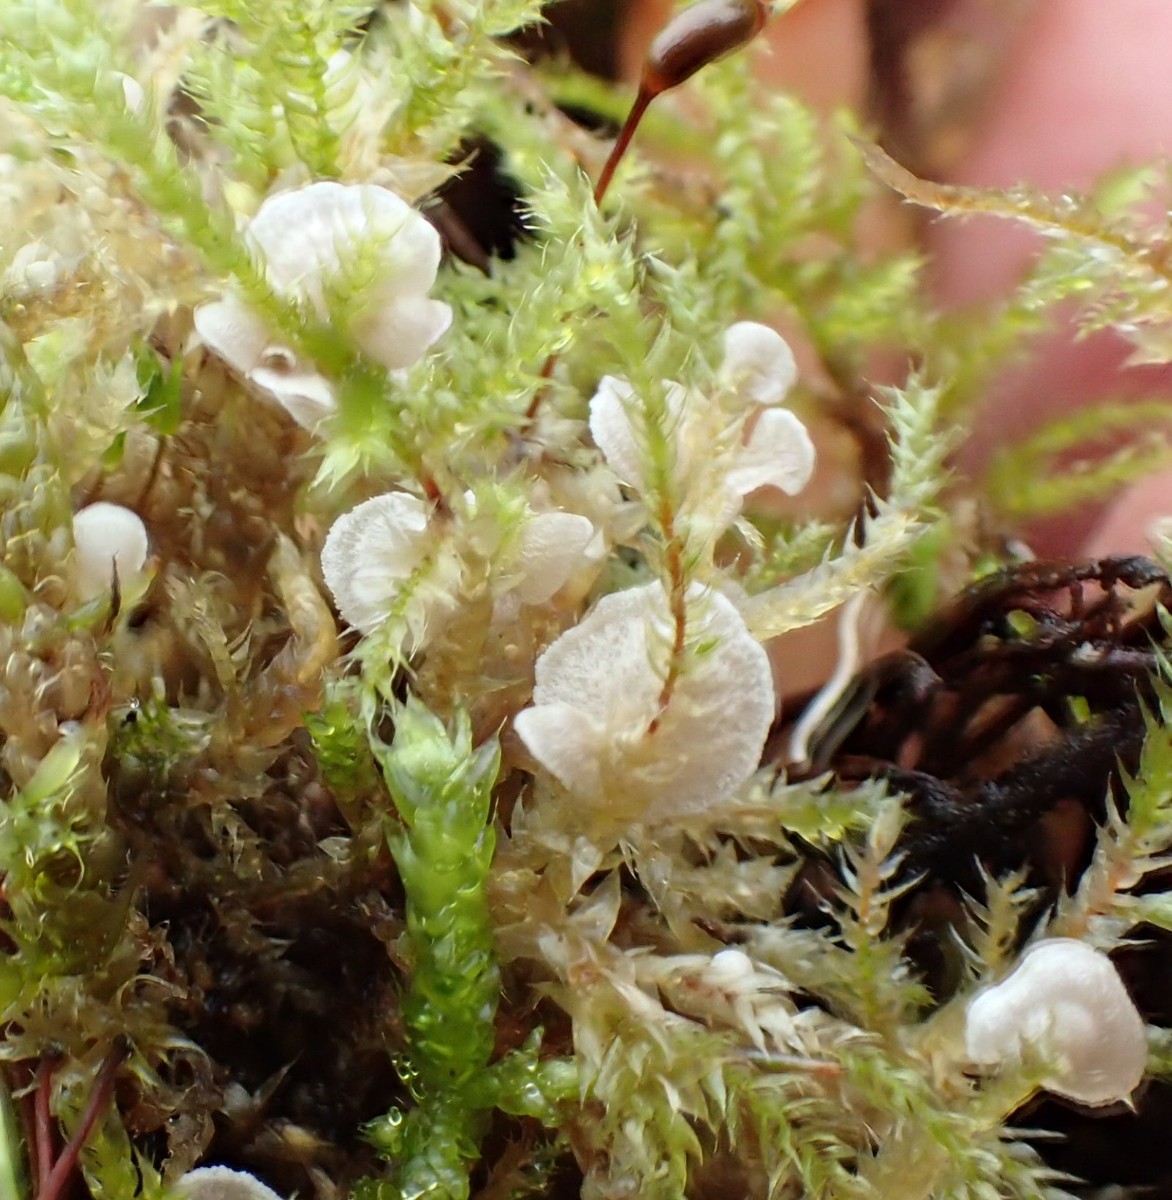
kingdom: Fungi
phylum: Basidiomycota
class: Agaricomycetes
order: Agaricales
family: Hygrophoraceae
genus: Arrhenia
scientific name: Arrhenia retiruga
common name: lille fontænehat
